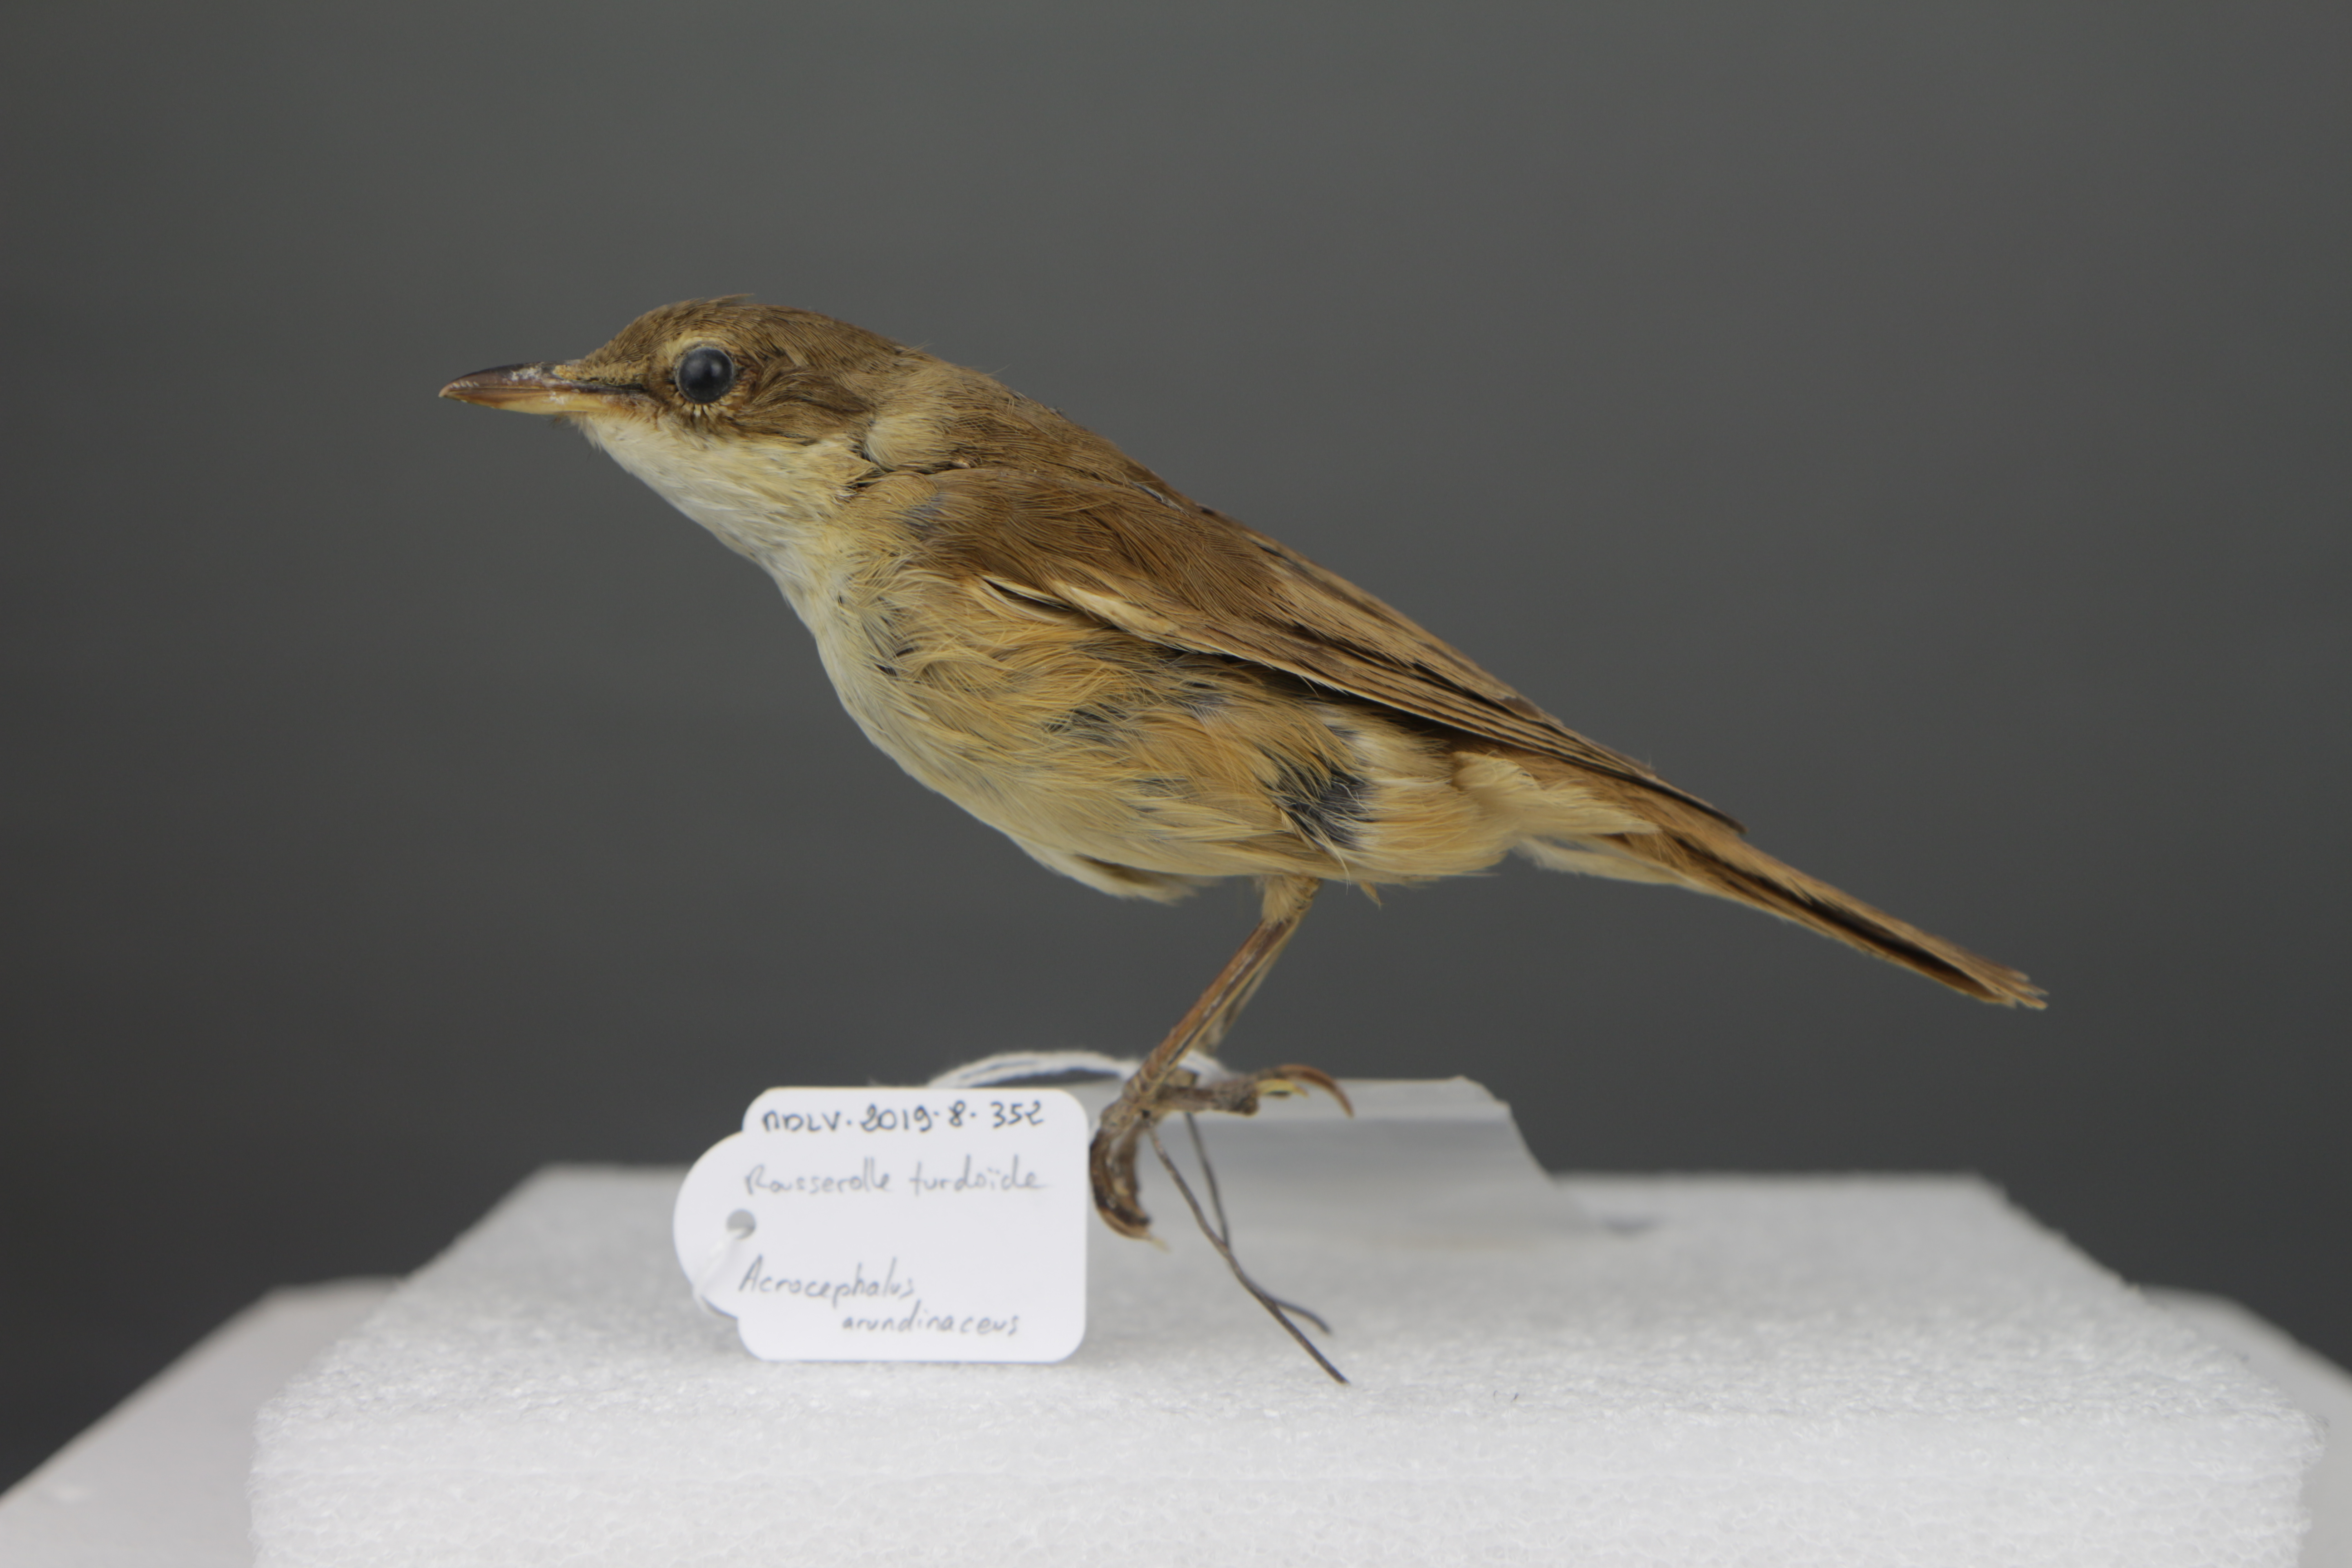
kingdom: Animalia
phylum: Chordata
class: Aves
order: Passeriformes
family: Acrocephalidae
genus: Acrocephalus
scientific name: Acrocephalus arundinaceus
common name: Great reed warbler
